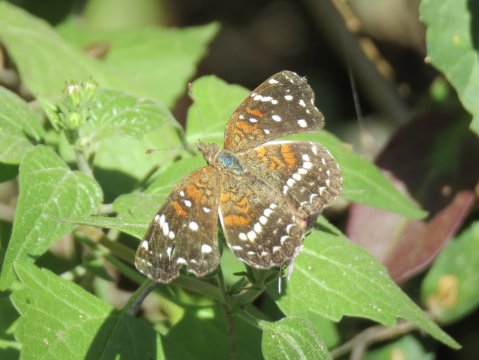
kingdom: Animalia
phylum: Arthropoda
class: Insecta
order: Lepidoptera
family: Nymphalidae
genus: Anthanassa
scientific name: Anthanassa texana
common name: Texan Crescent
